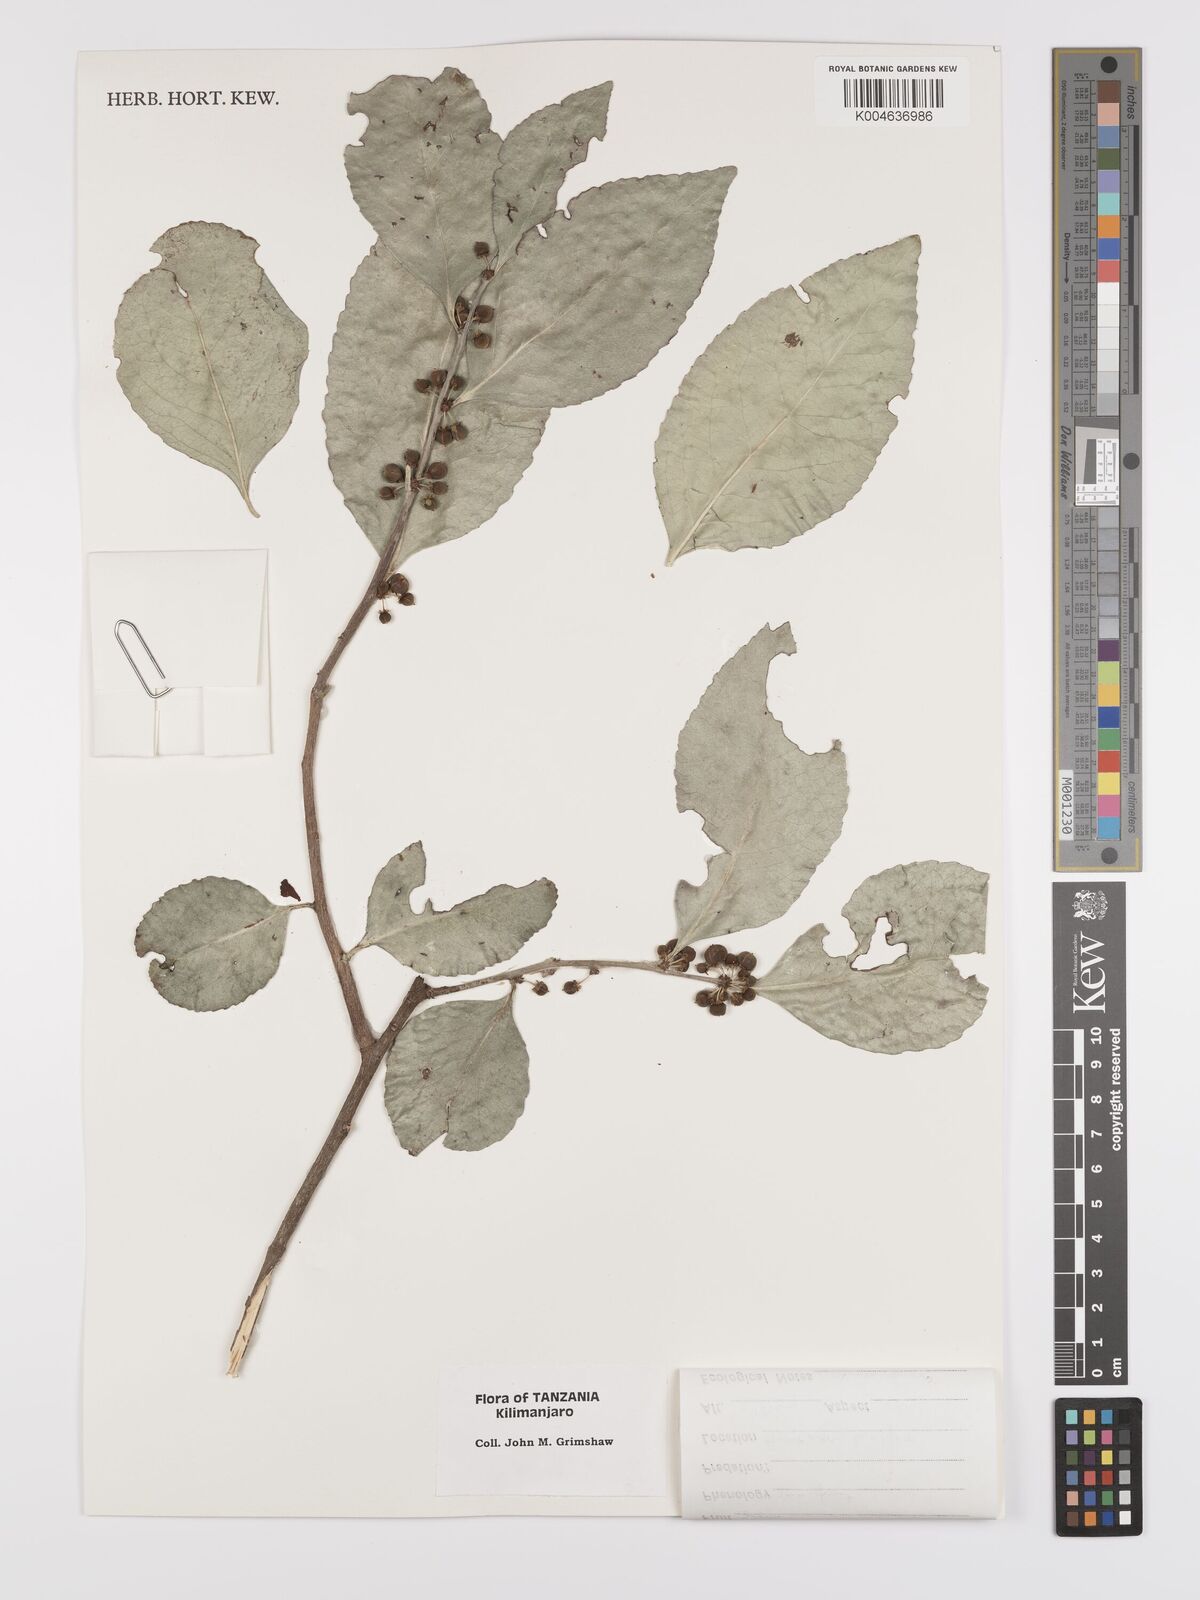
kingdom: Plantae
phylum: Tracheophyta
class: Magnoliopsida
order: Celastrales
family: Celastraceae
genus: Gymnosporia
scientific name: Gymnosporia undata
